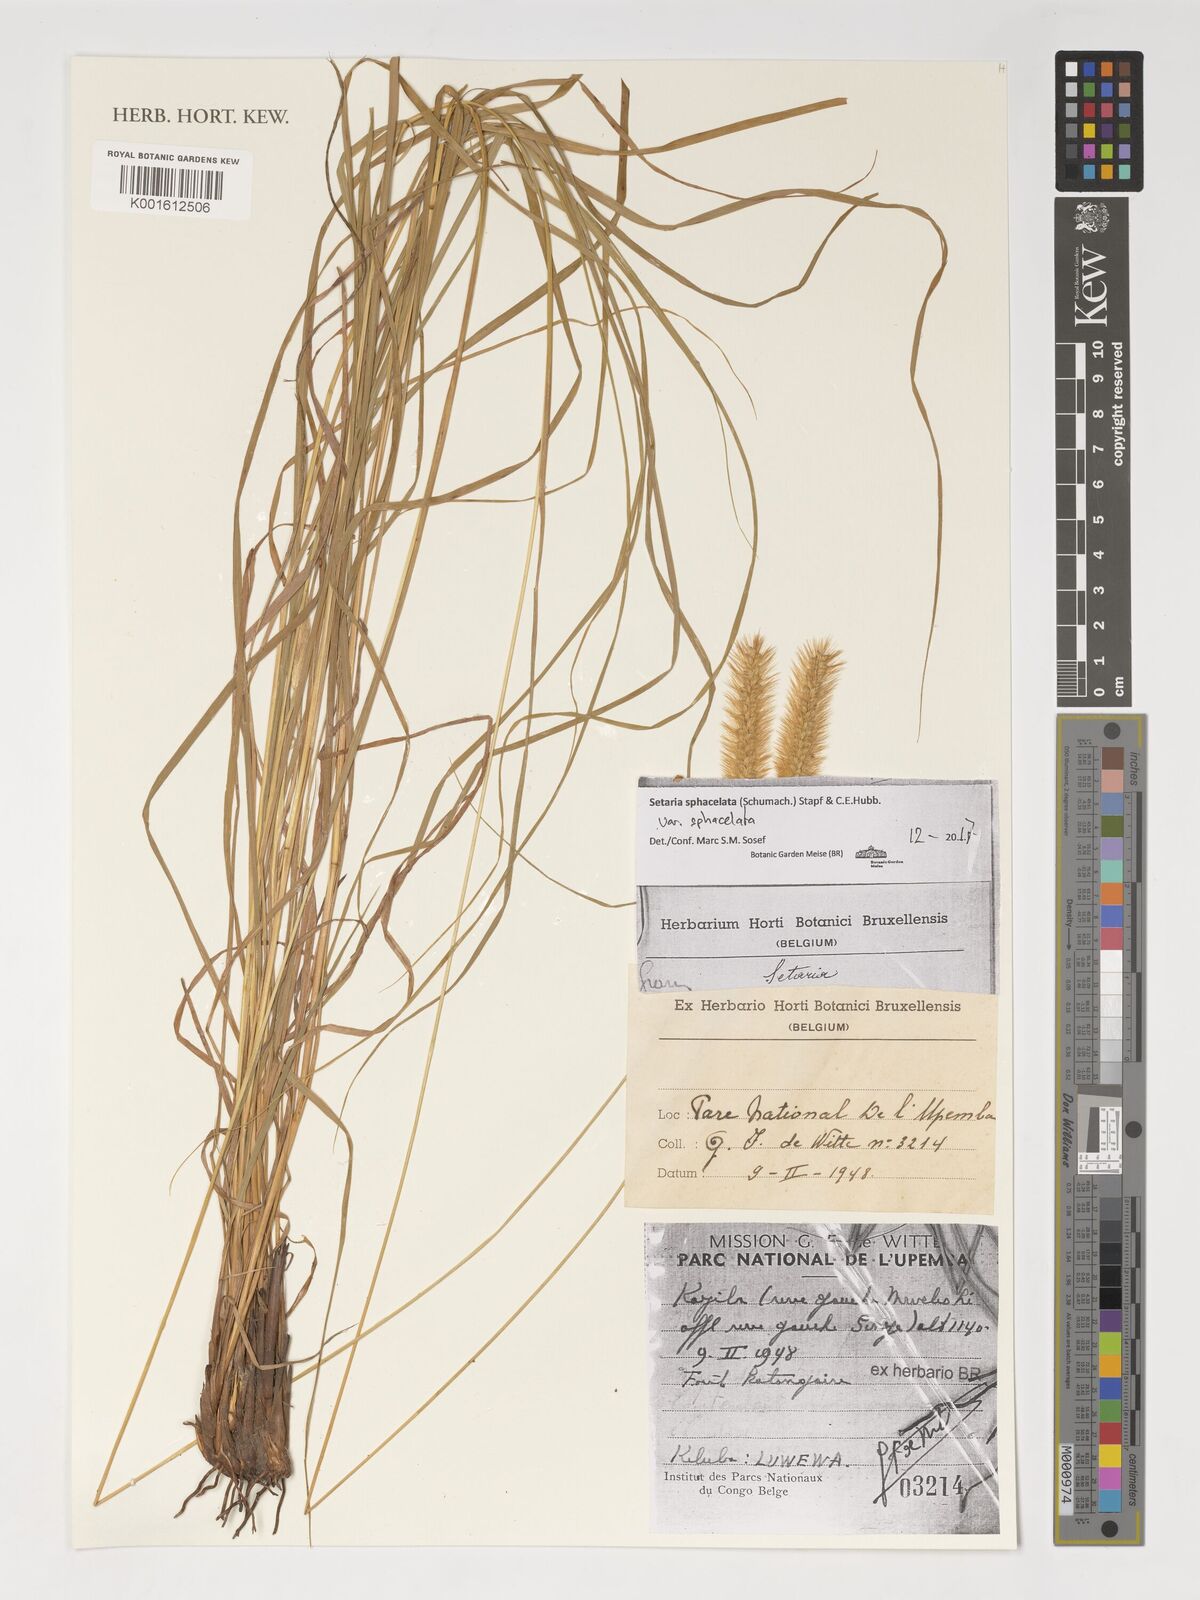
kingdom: Plantae
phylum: Tracheophyta
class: Liliopsida
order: Poales
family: Poaceae
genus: Setaria
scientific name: Setaria sphacelata
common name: African bristlegrass
